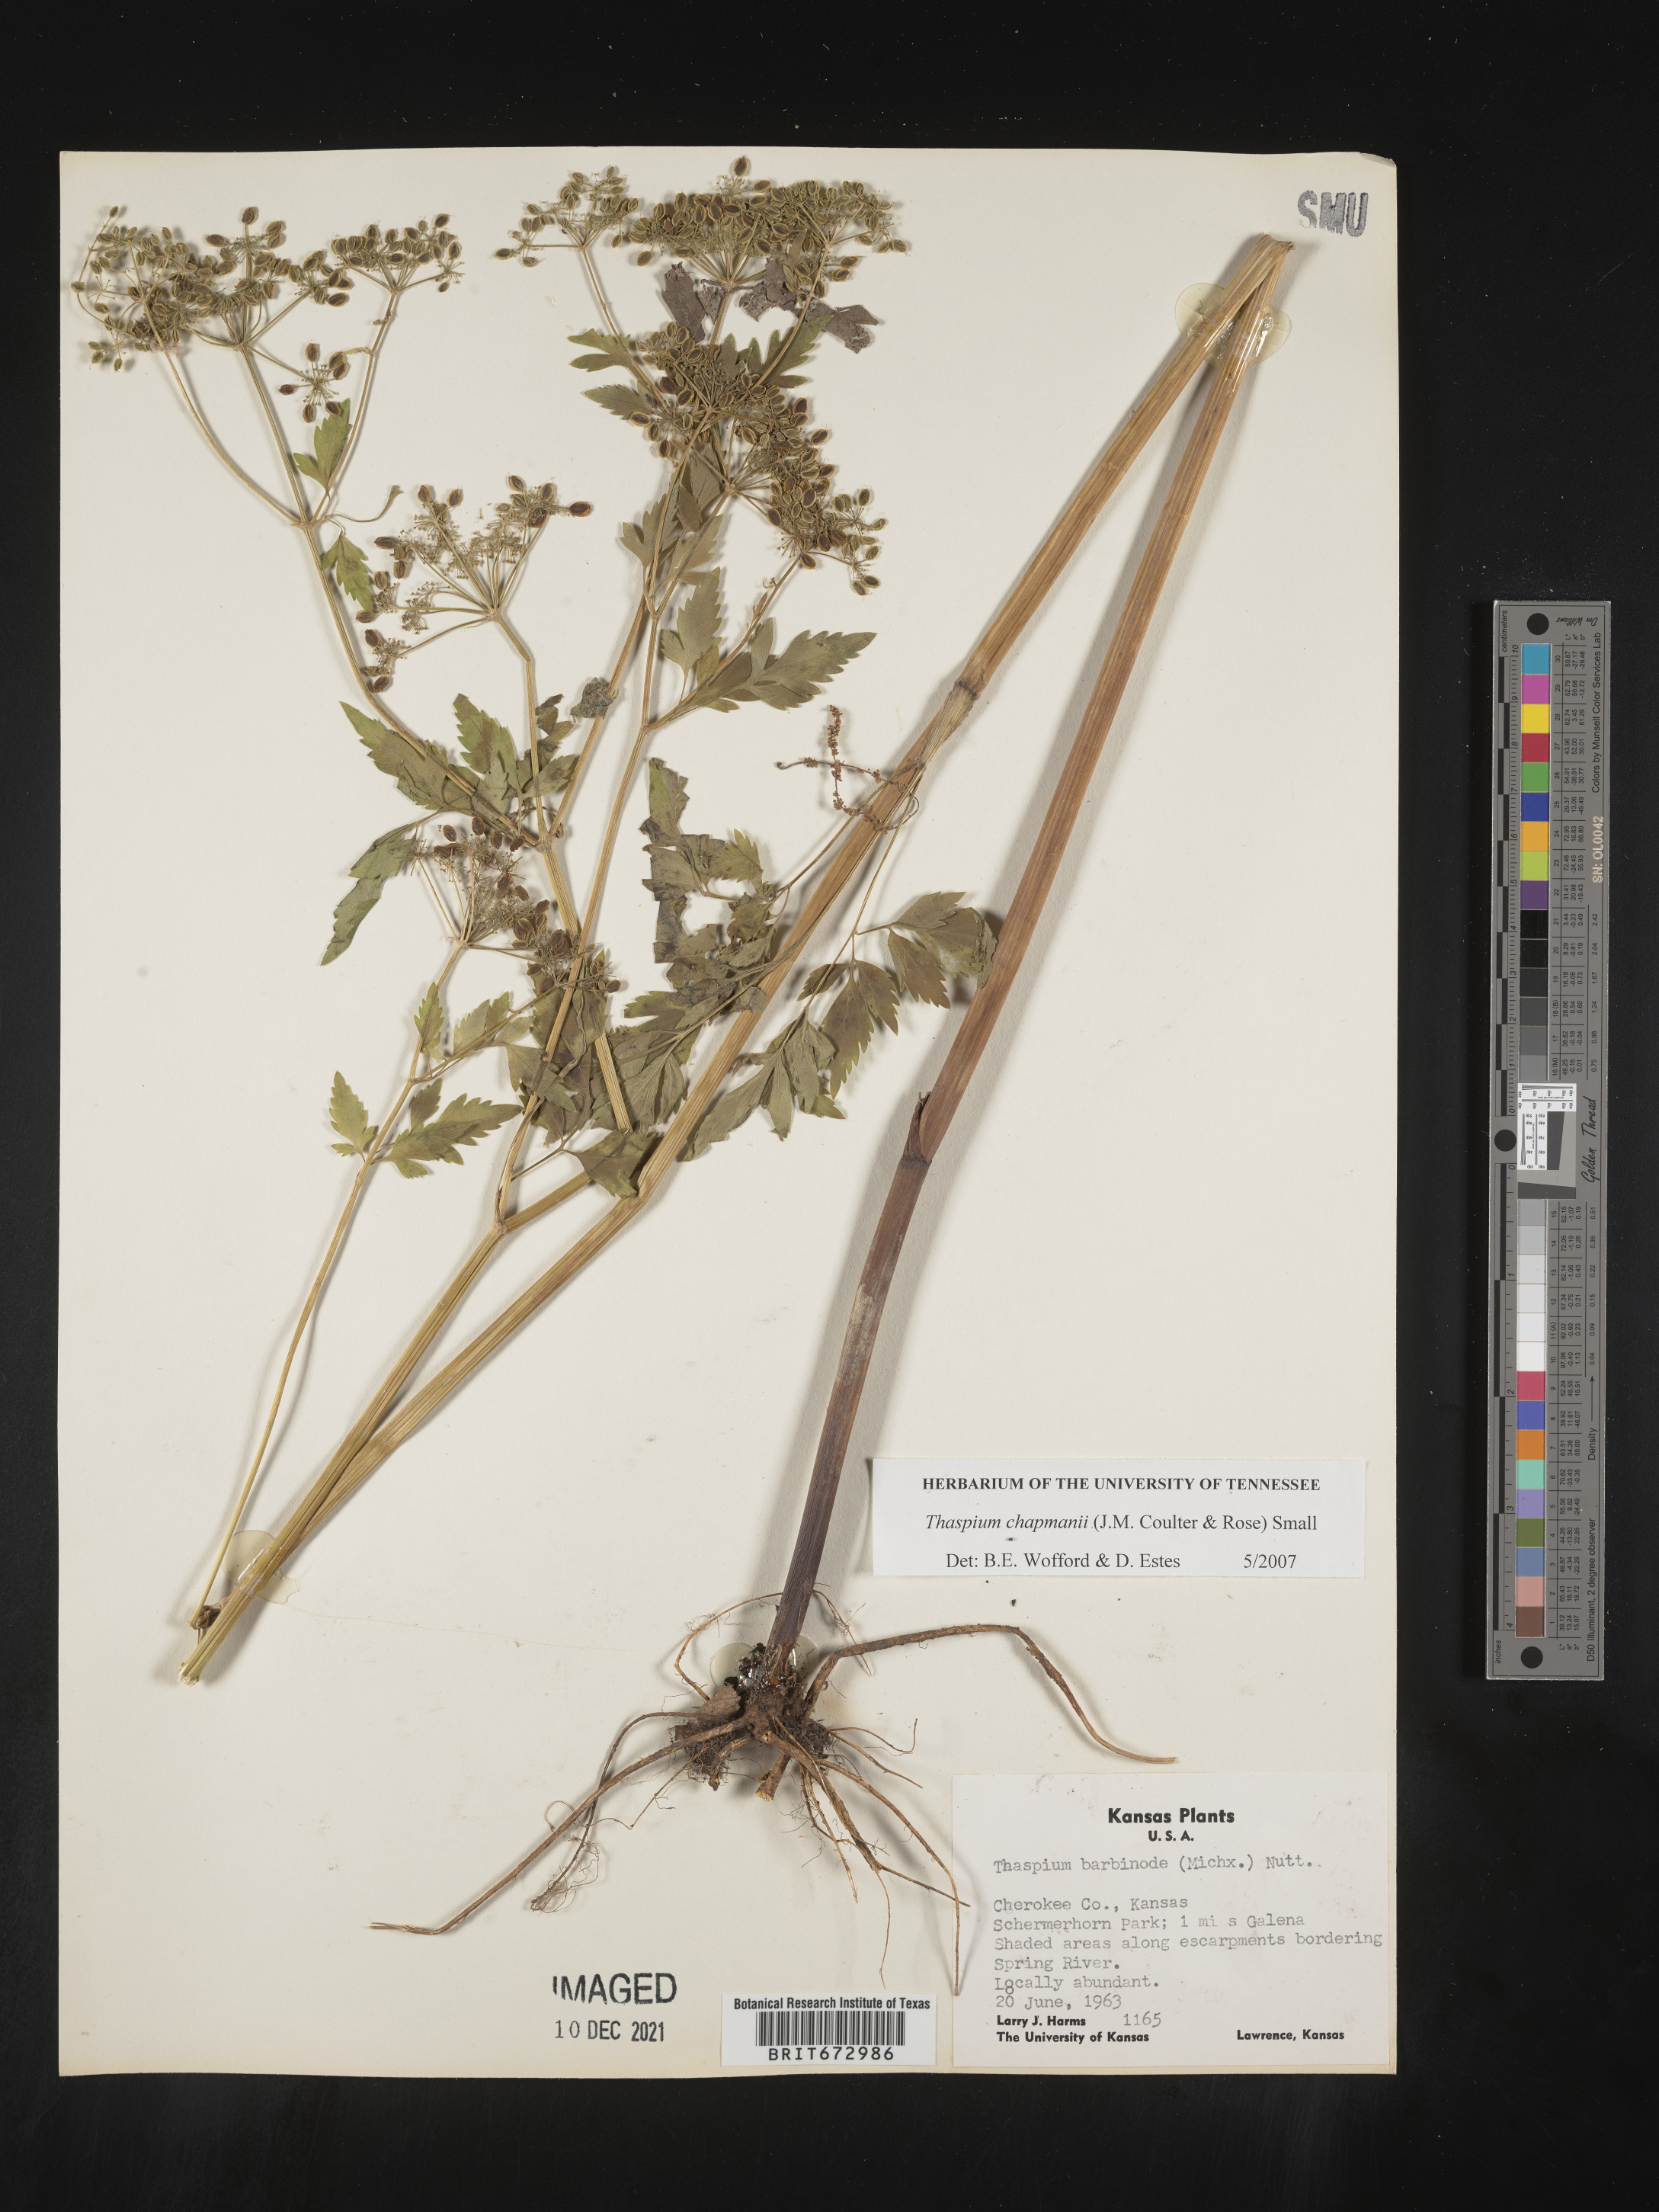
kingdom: Plantae
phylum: Tracheophyta
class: Magnoliopsida
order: Apiales
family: Apiaceae
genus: Thaspium
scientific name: Thaspium barbinode
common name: Bearded meadow-parsnip
